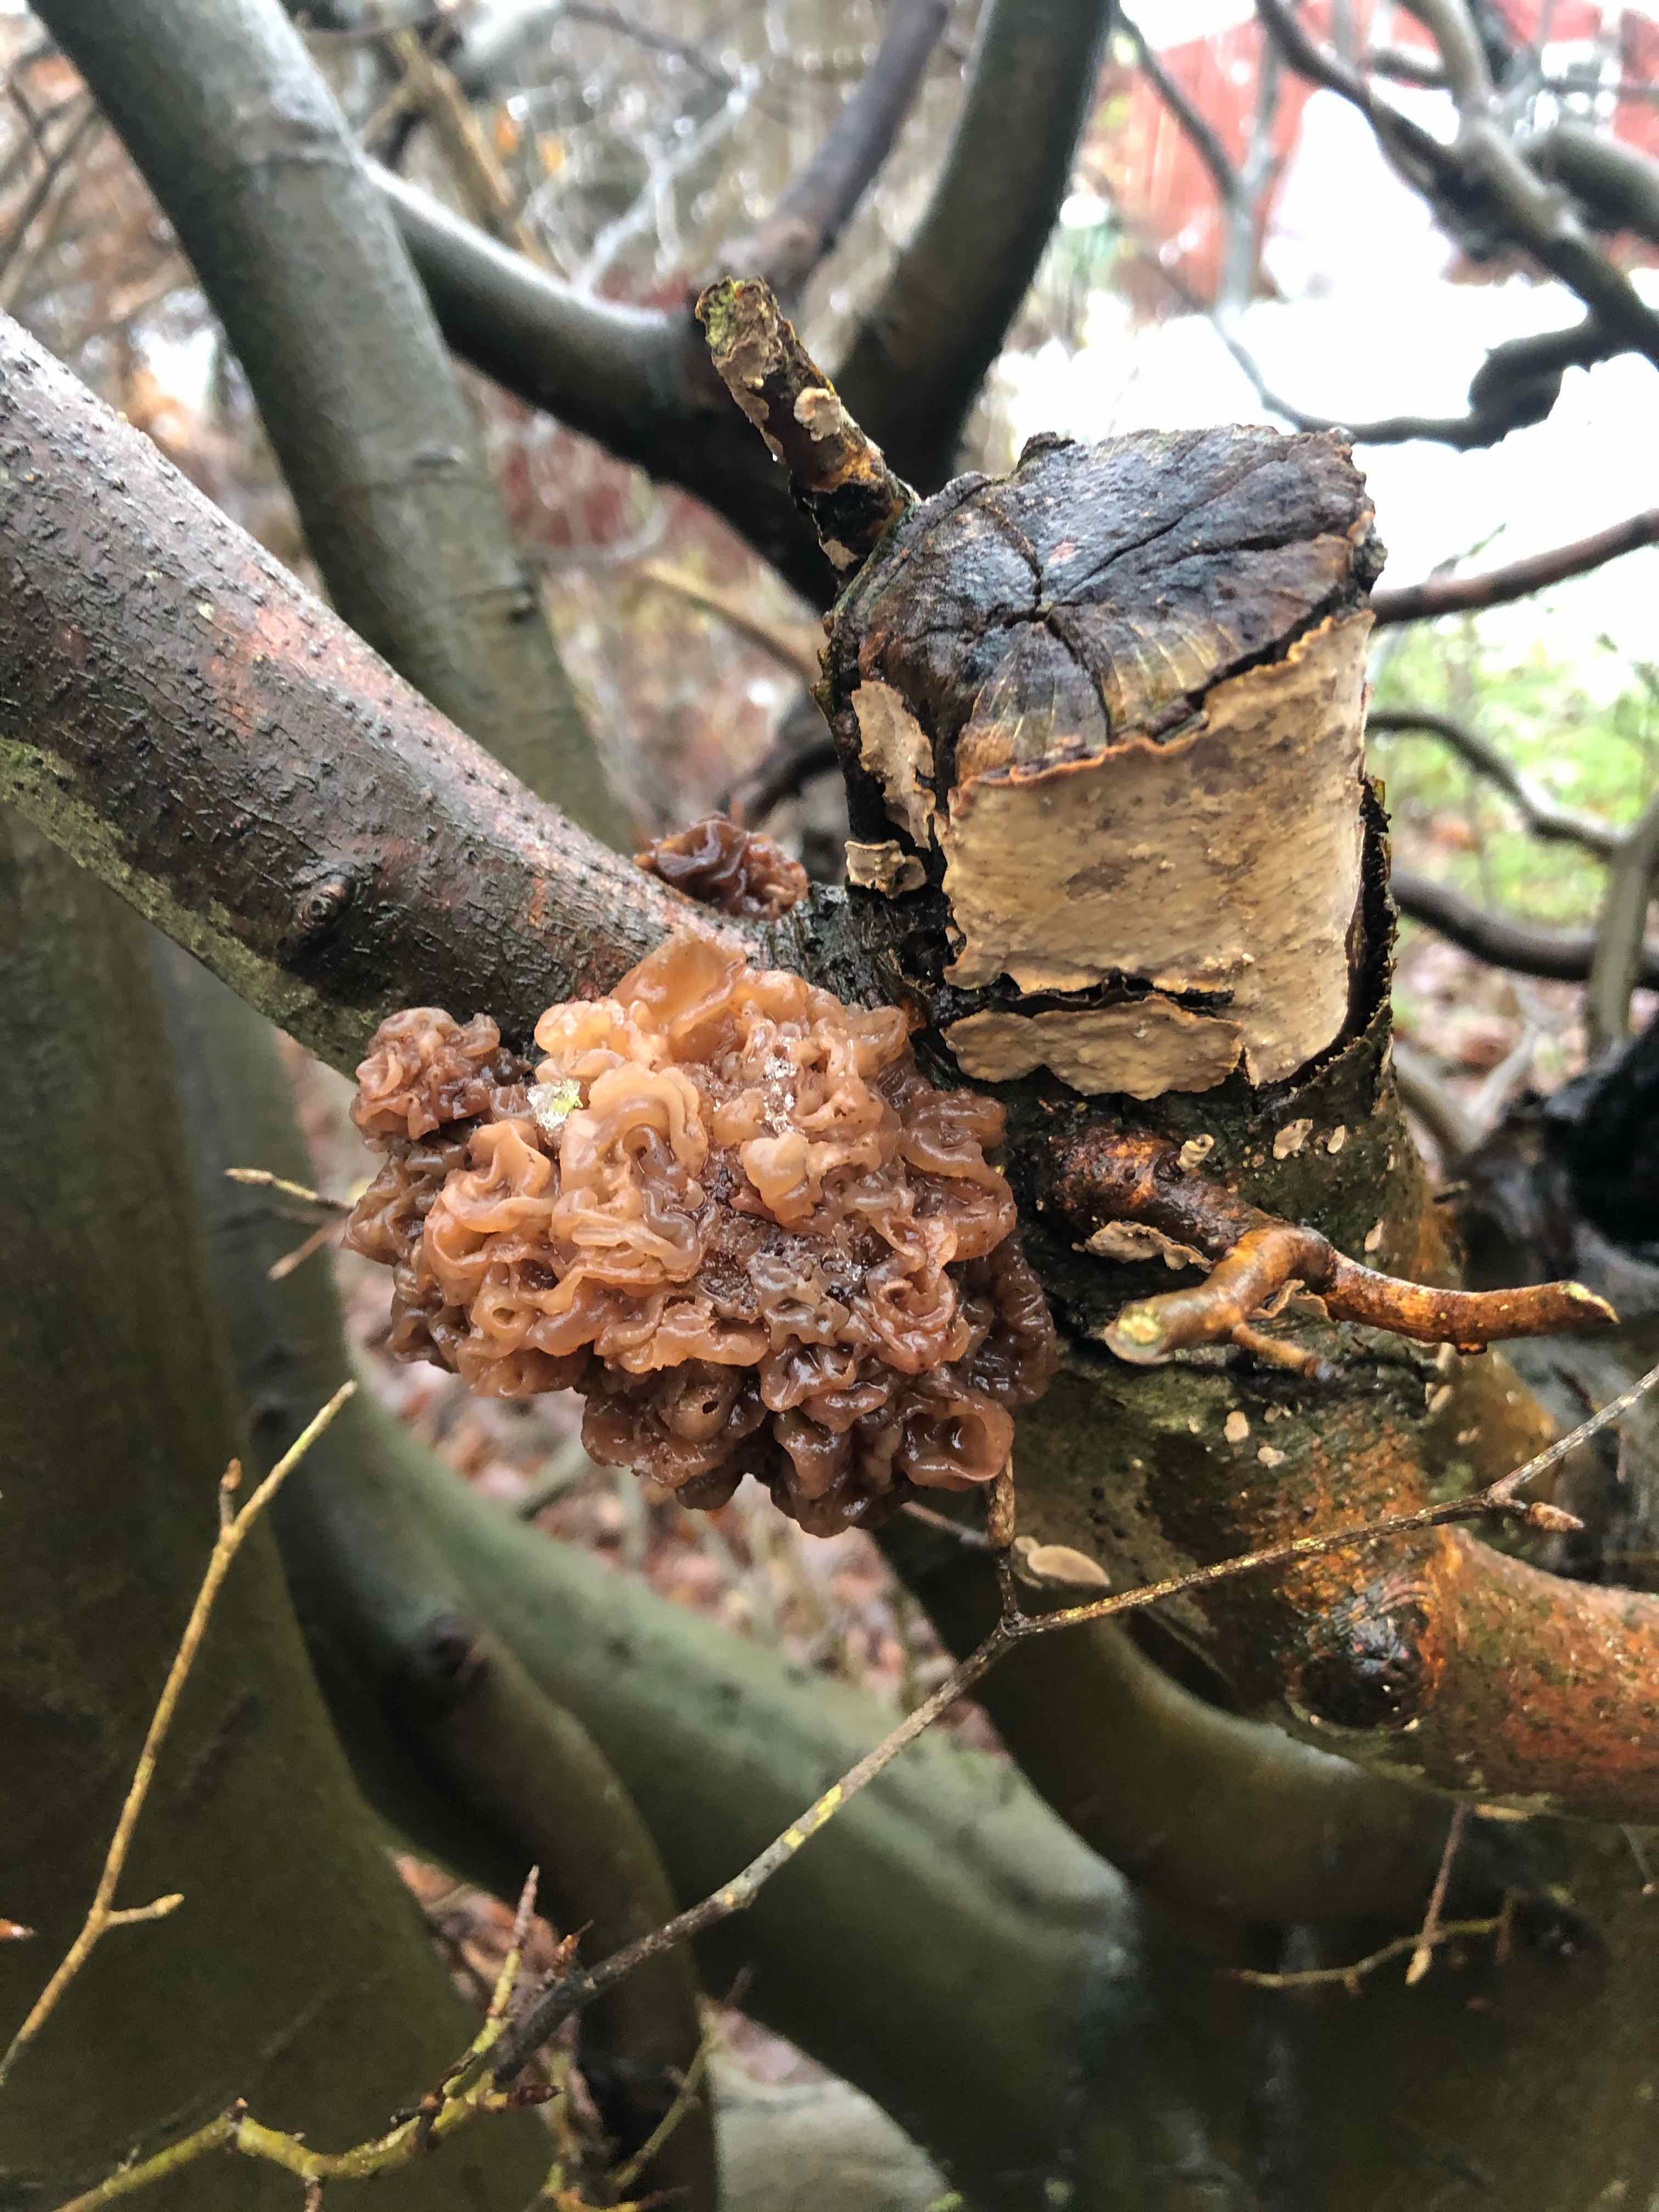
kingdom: Fungi
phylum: Basidiomycota
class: Tremellomycetes
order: Tremellales
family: Tremellaceae
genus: Phaeotremella
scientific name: Phaeotremella frondosa
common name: kæmpe-bævresvamp
